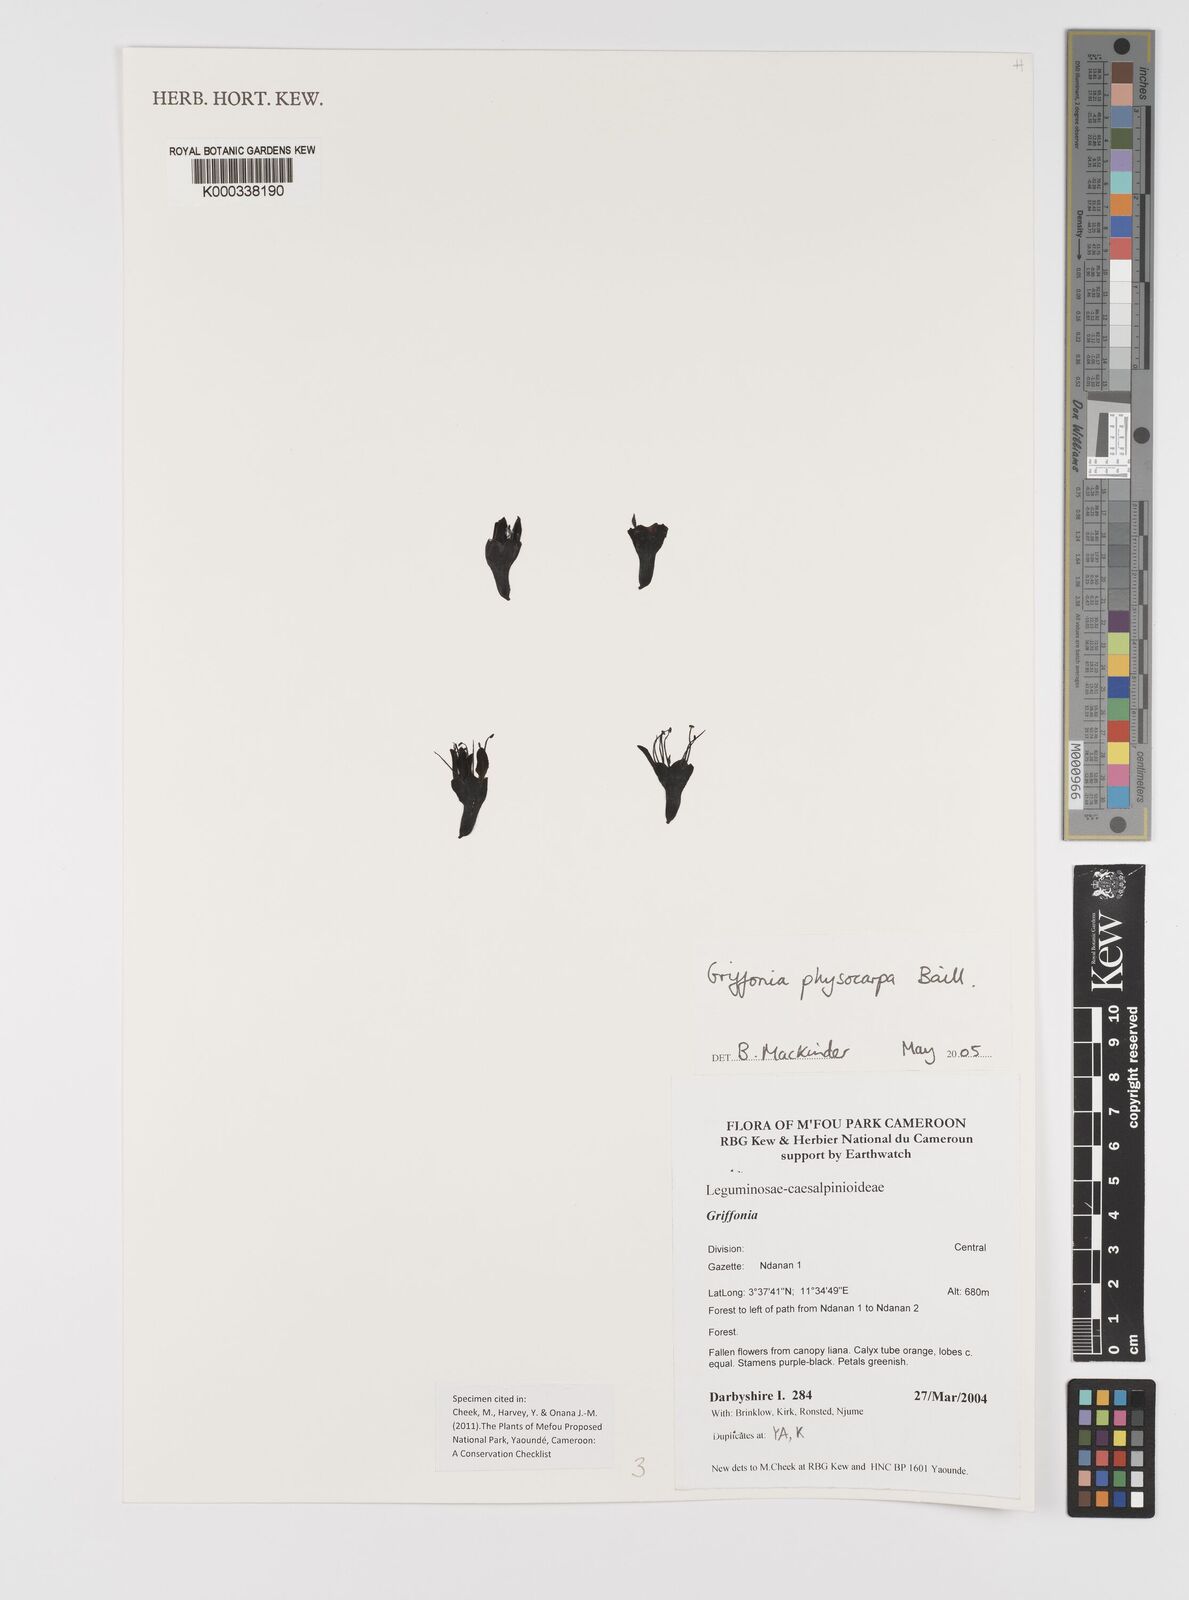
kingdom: Plantae
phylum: Tracheophyta
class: Magnoliopsida
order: Fabales
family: Fabaceae
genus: Griffonia
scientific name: Griffonia physocarpa
